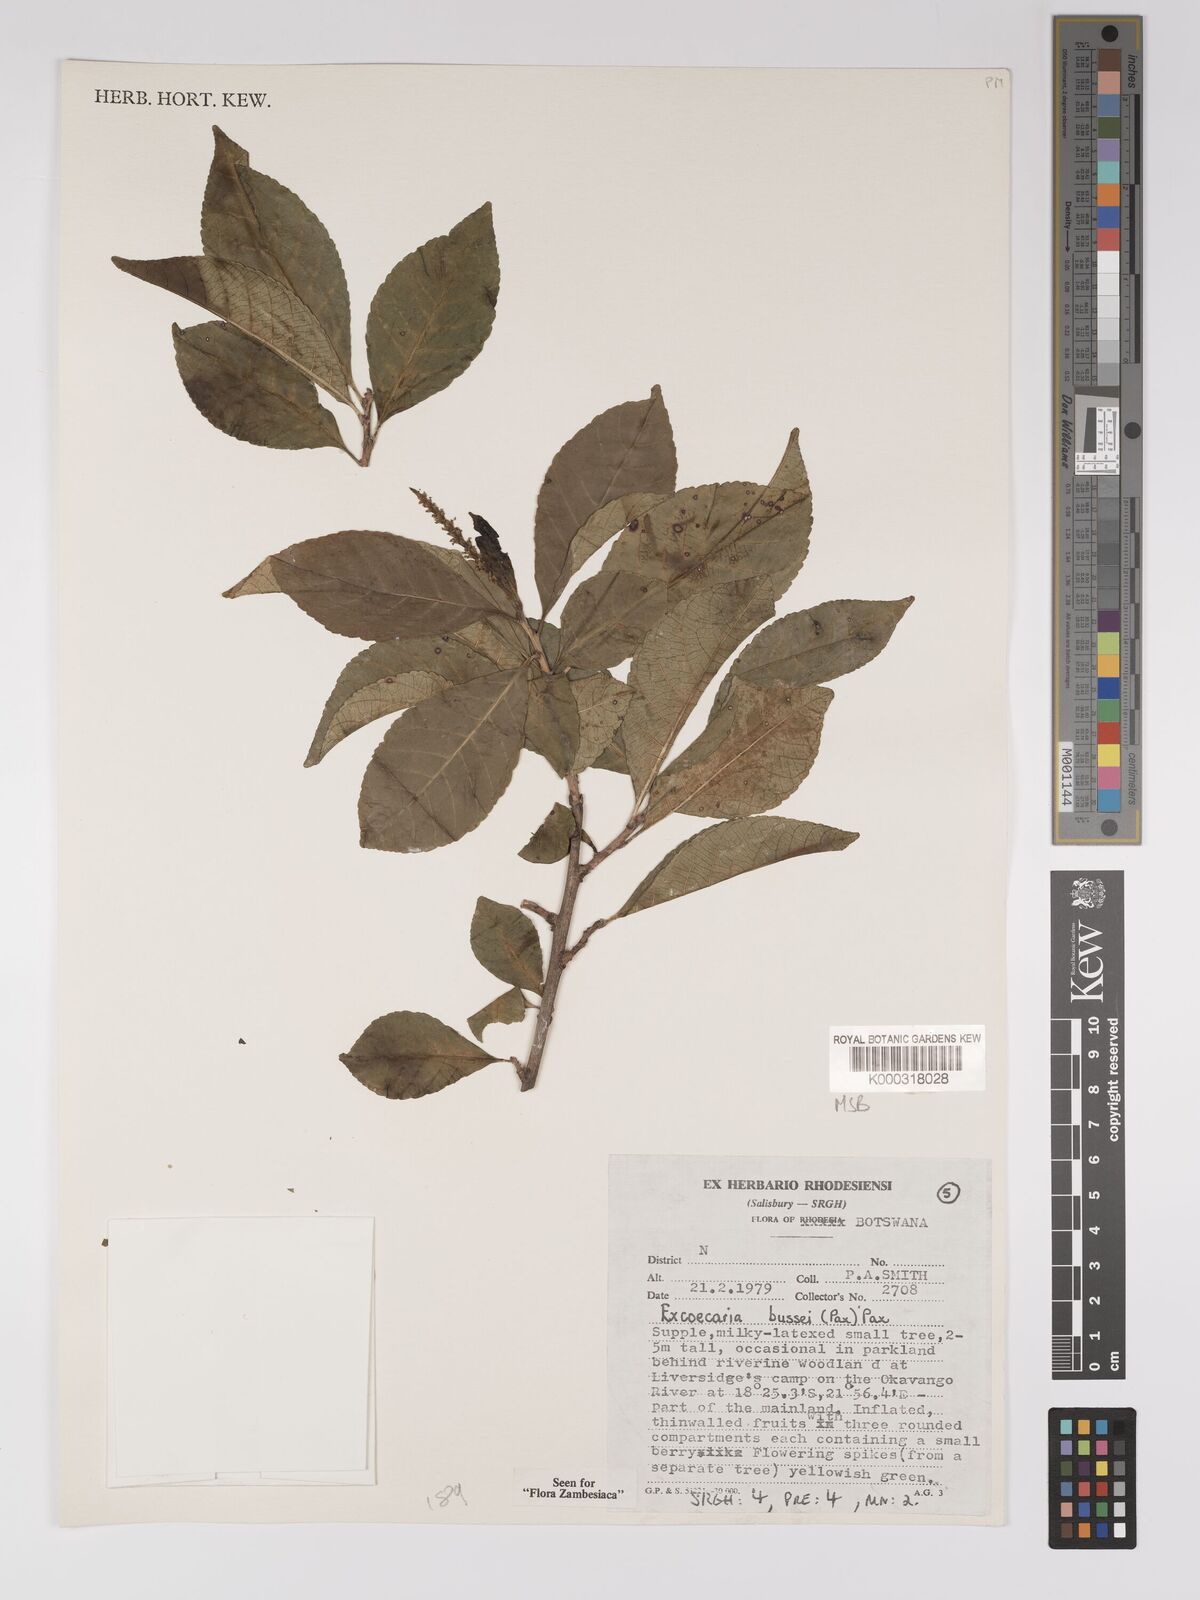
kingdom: Plantae
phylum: Tracheophyta
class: Magnoliopsida
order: Malpighiales
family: Euphorbiaceae
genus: Excoecaria
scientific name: Excoecaria bussei
